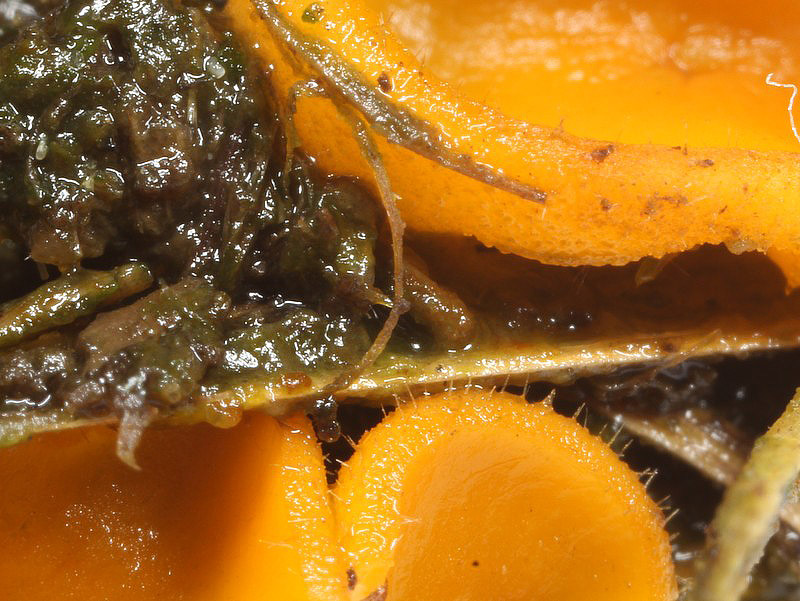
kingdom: Fungi
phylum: Ascomycota
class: Pezizomycetes
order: Pezizales
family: Pyronemataceae
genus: Cheilymenia
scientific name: Cheilymenia fimicola
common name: møg-hårbæger
